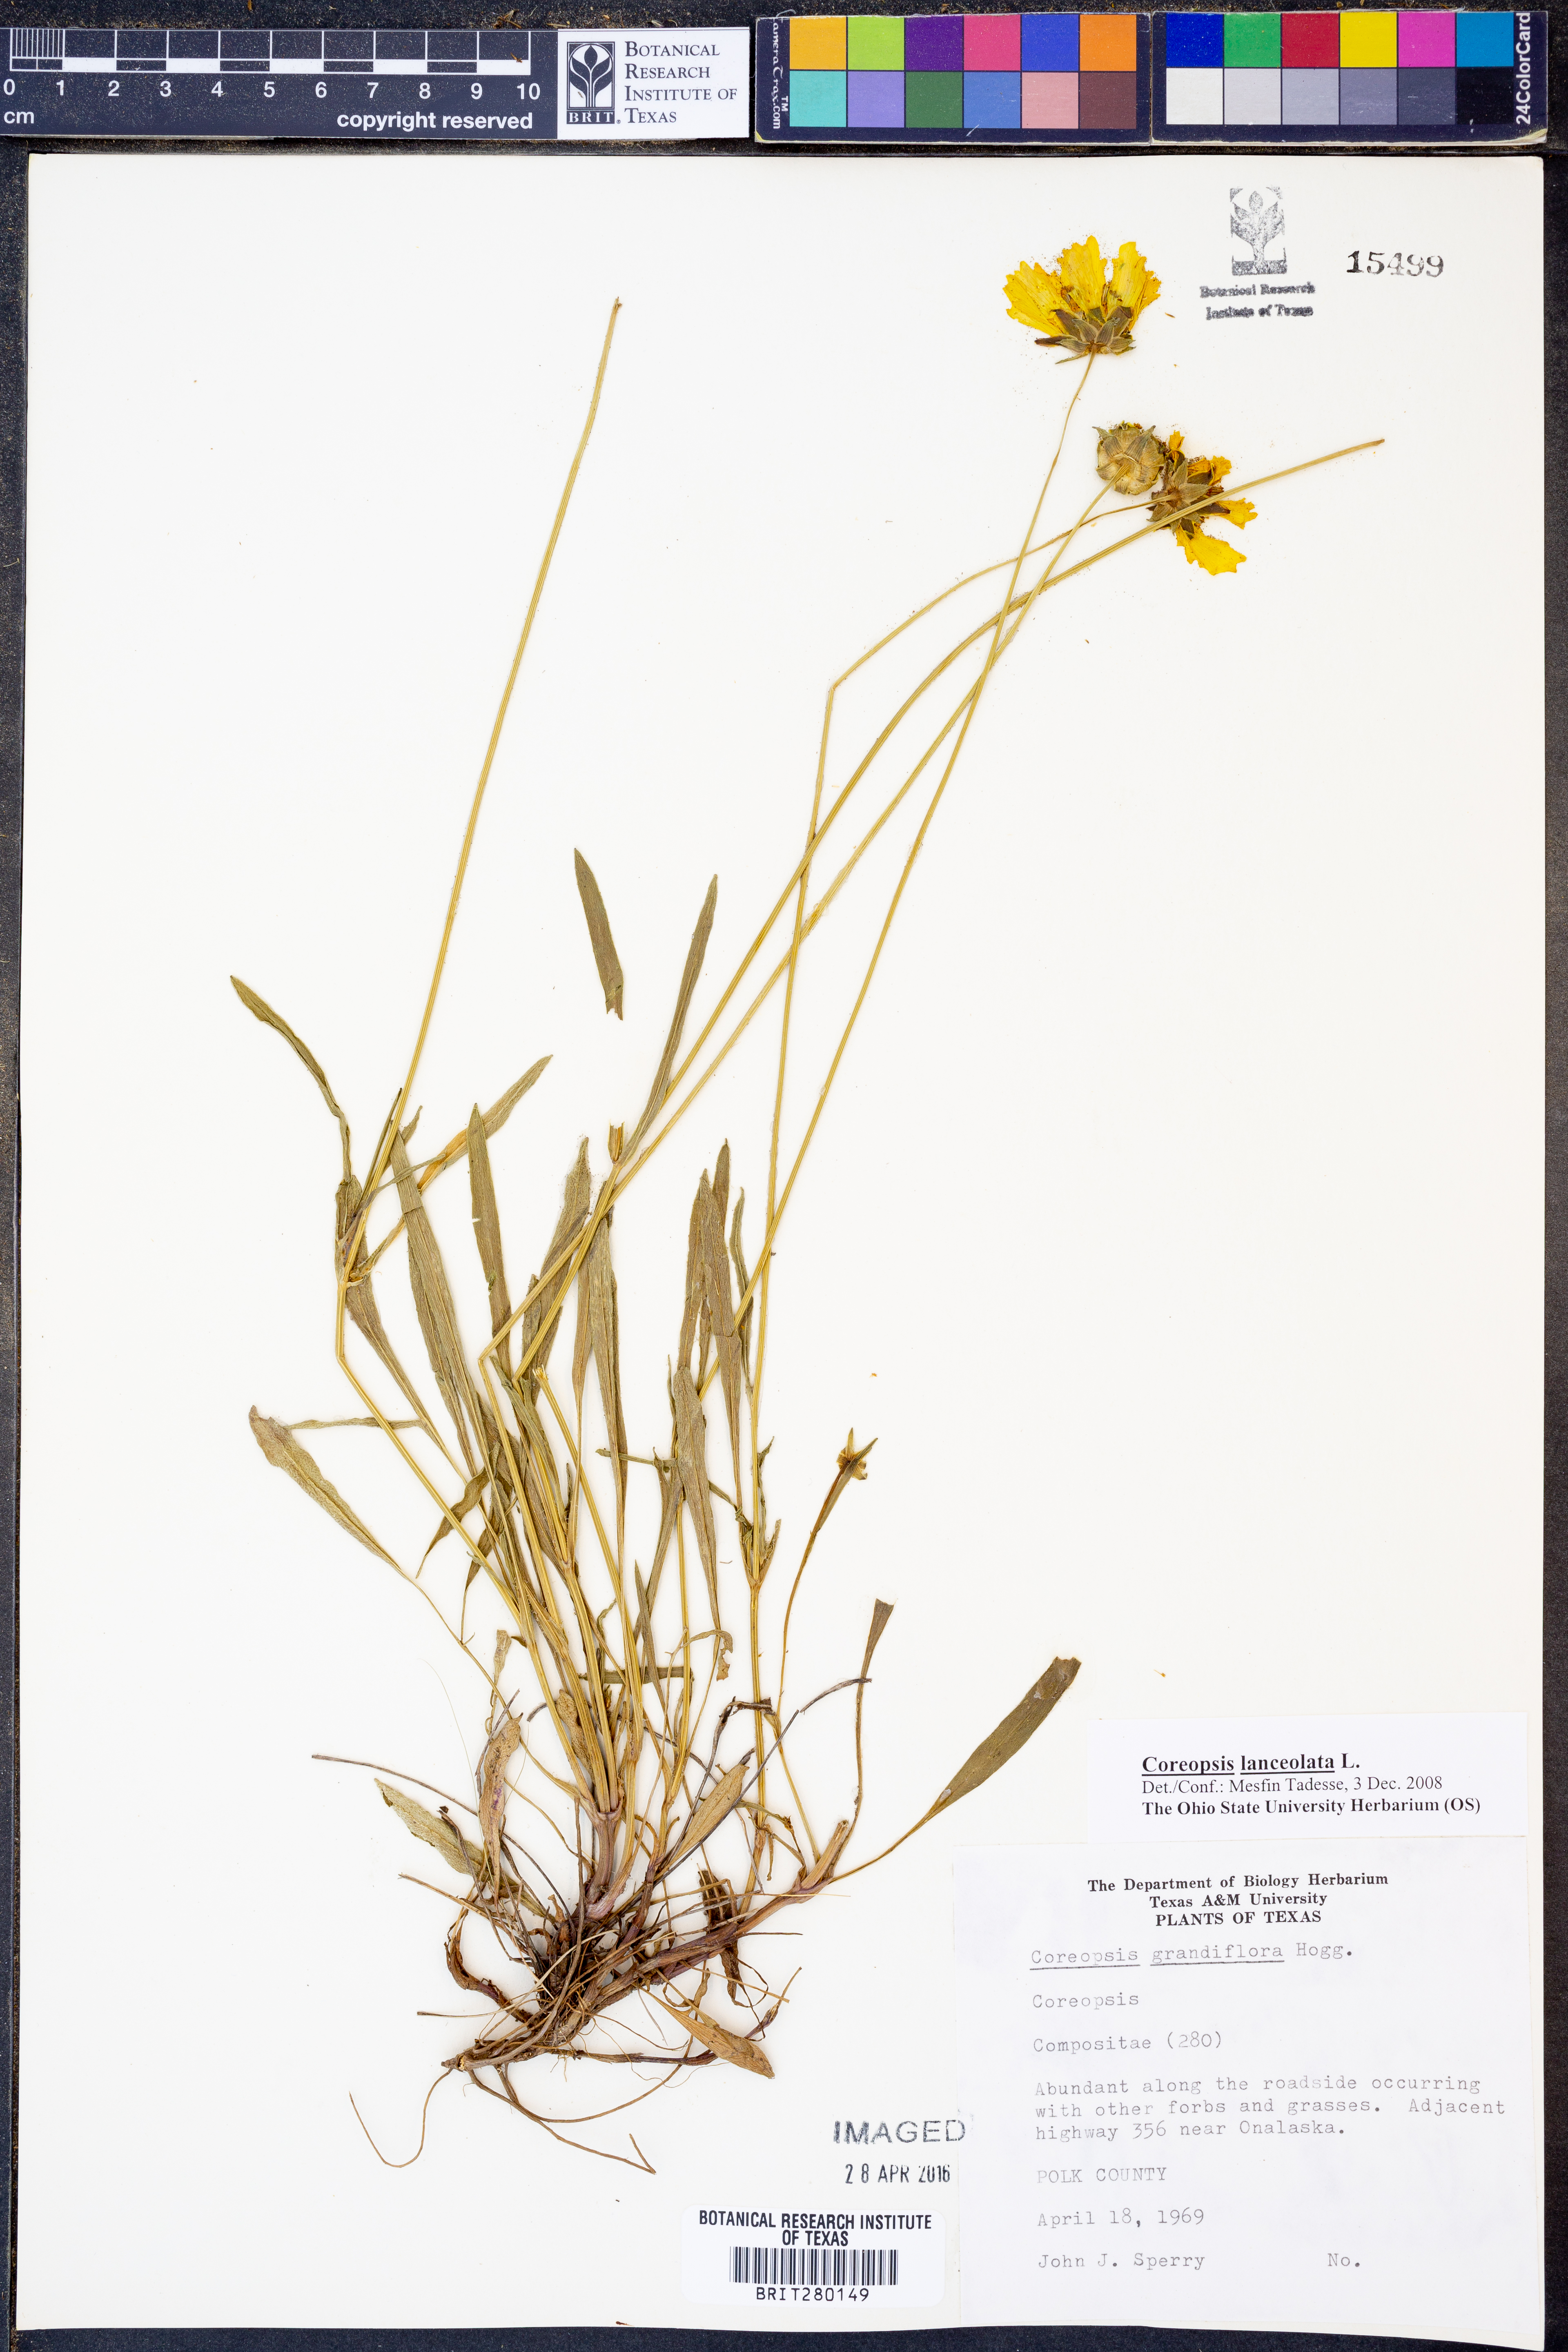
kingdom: Plantae
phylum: Tracheophyta
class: Magnoliopsida
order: Asterales
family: Asteraceae
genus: Coreopsis
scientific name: Coreopsis lanceolata
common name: Garden coreopsis
